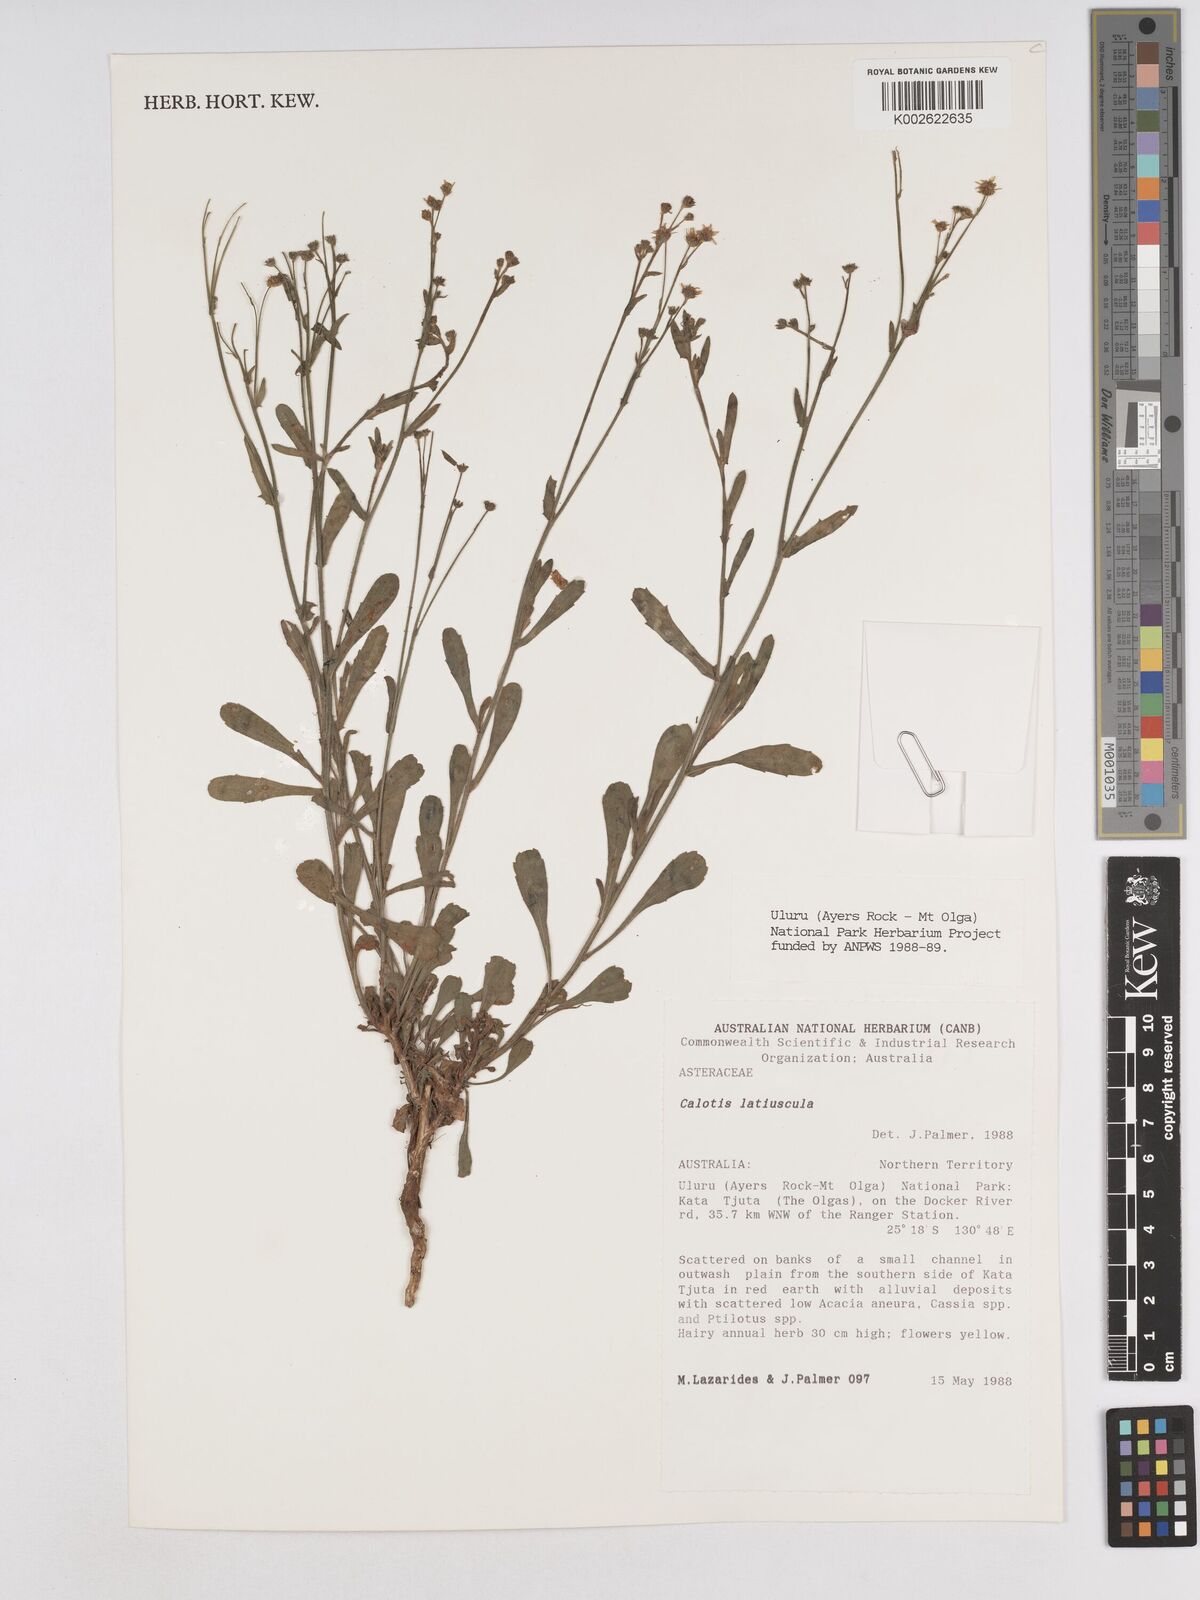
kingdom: Plantae
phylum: Tracheophyta
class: Magnoliopsida
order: Asterales
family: Asteraceae
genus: Calotis
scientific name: Calotis latiuscula
